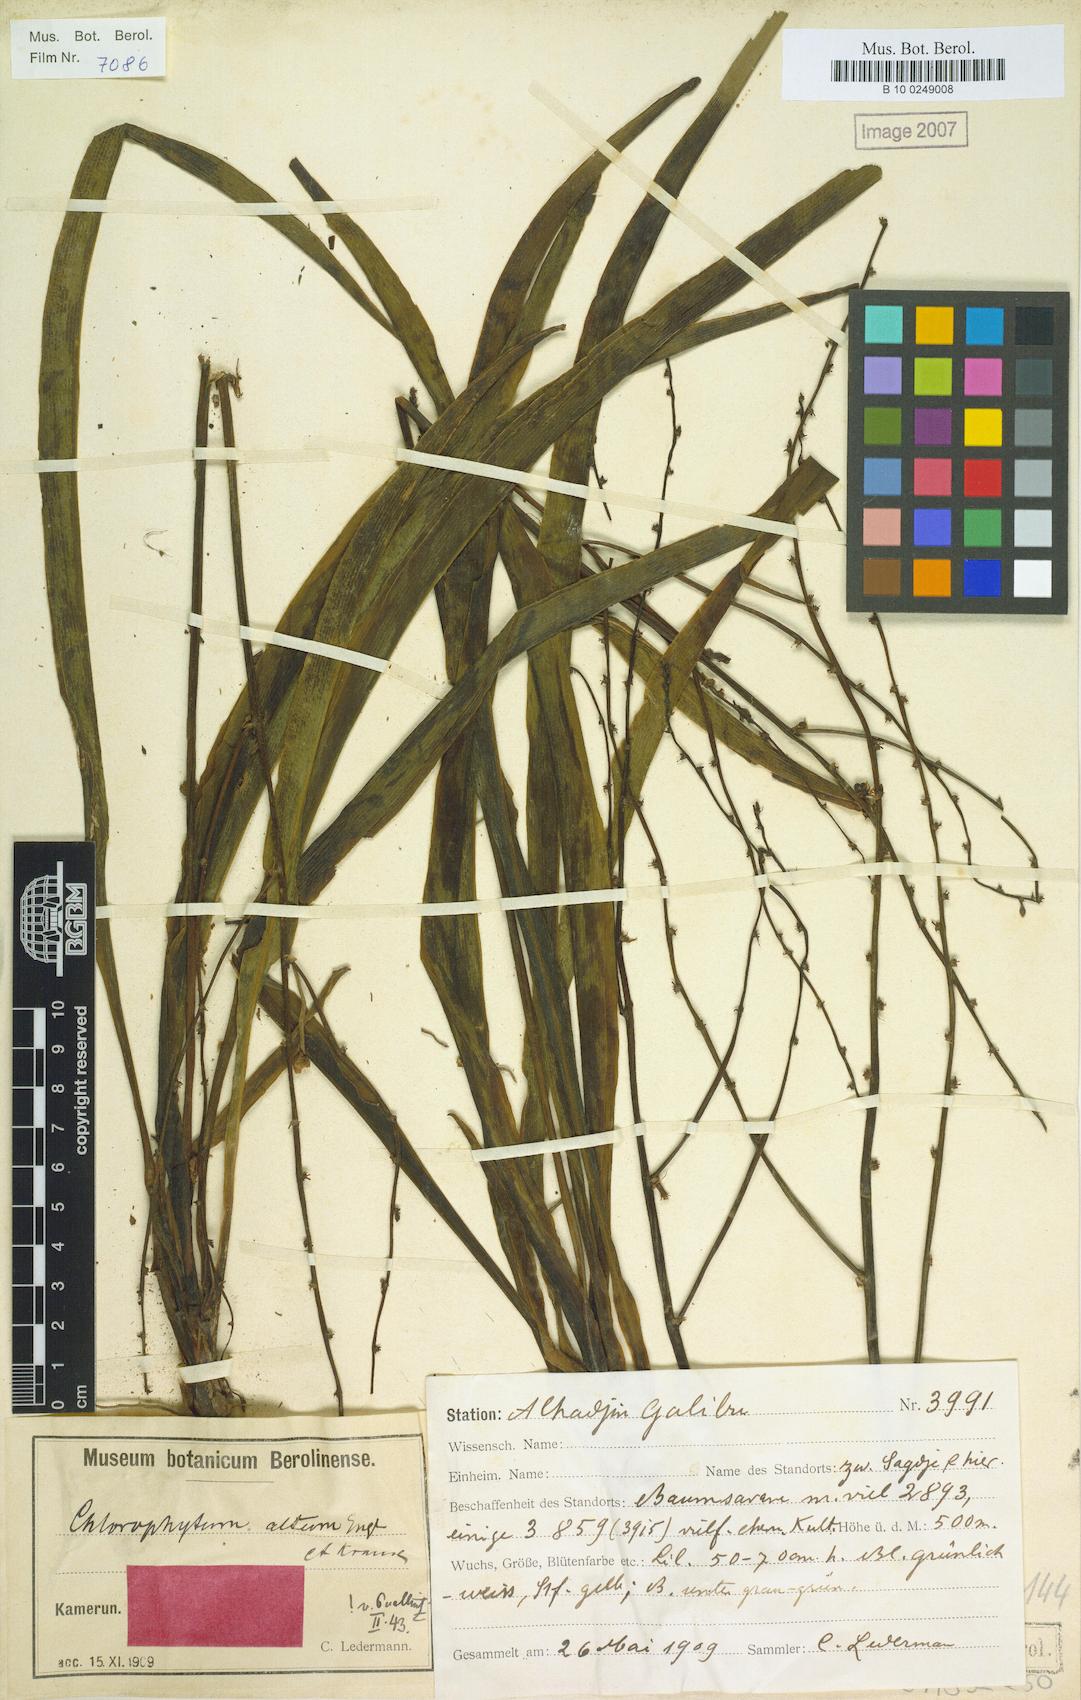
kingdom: Plantae
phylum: Tracheophyta
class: Liliopsida
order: Asparagales
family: Asparagaceae
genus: Chlorophytum
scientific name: Chlorophytum altum
